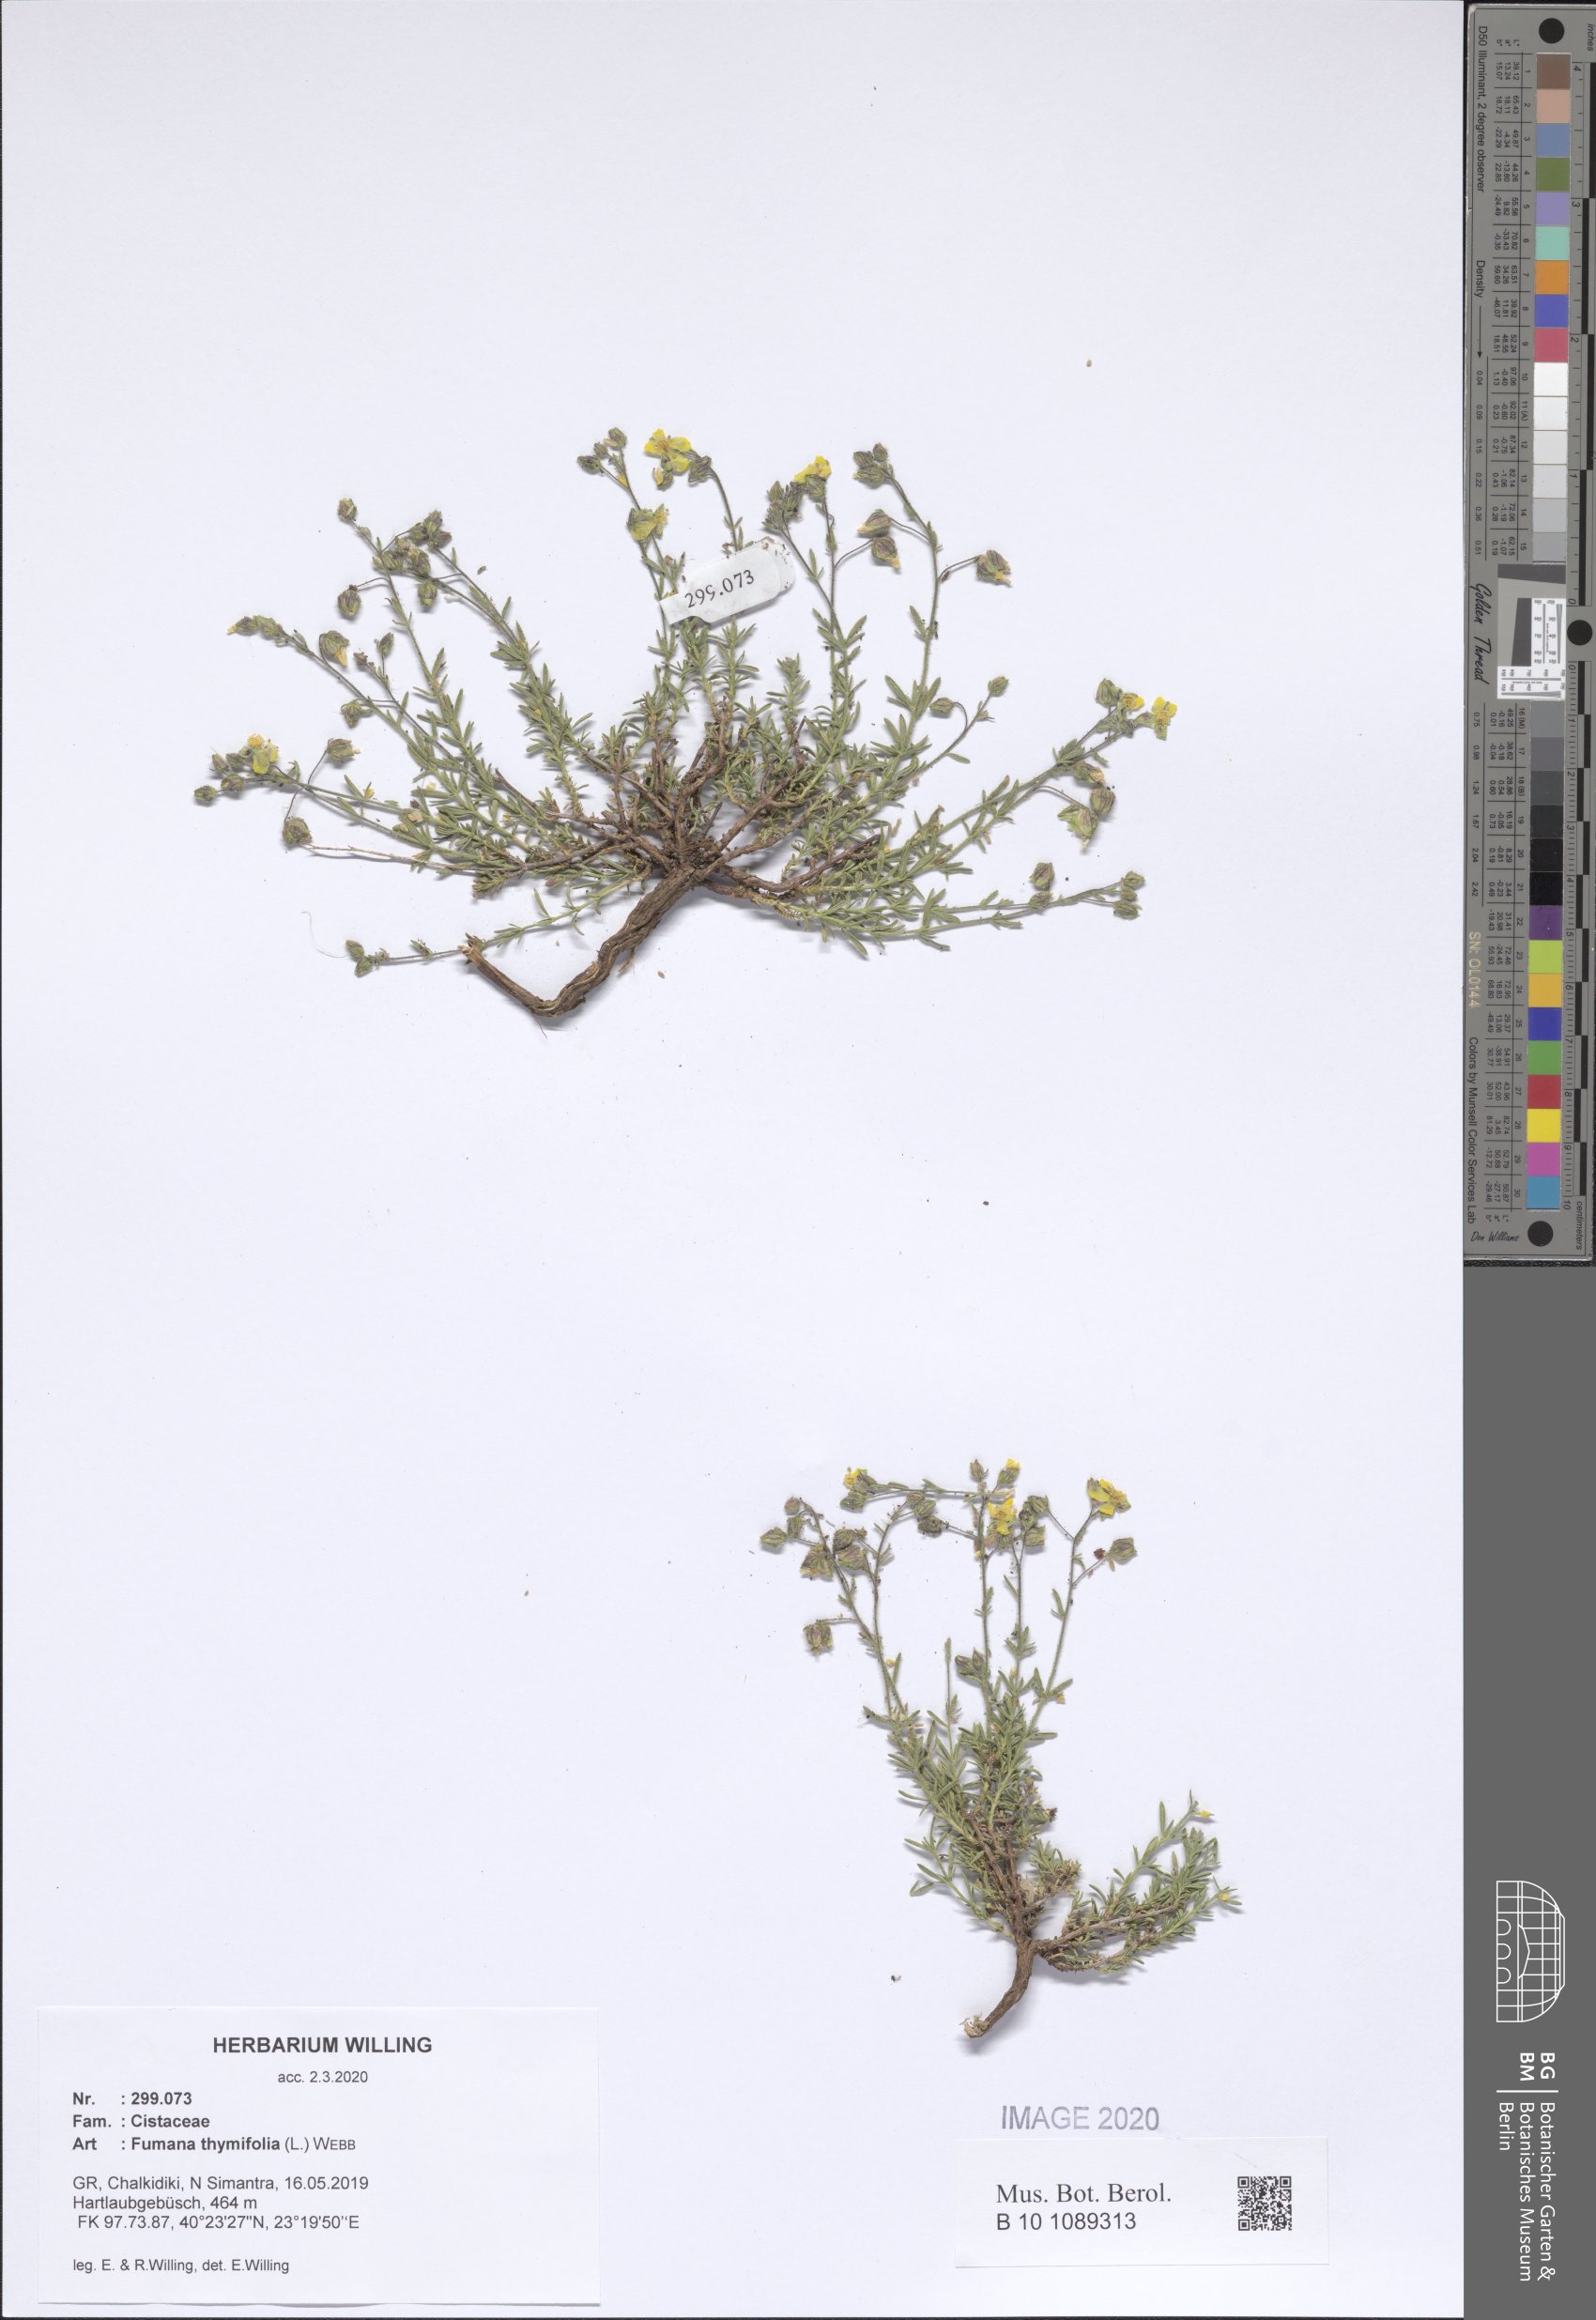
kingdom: Plantae
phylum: Tracheophyta
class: Magnoliopsida
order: Malvales
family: Cistaceae
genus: Fumana
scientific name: Fumana thymifolia
